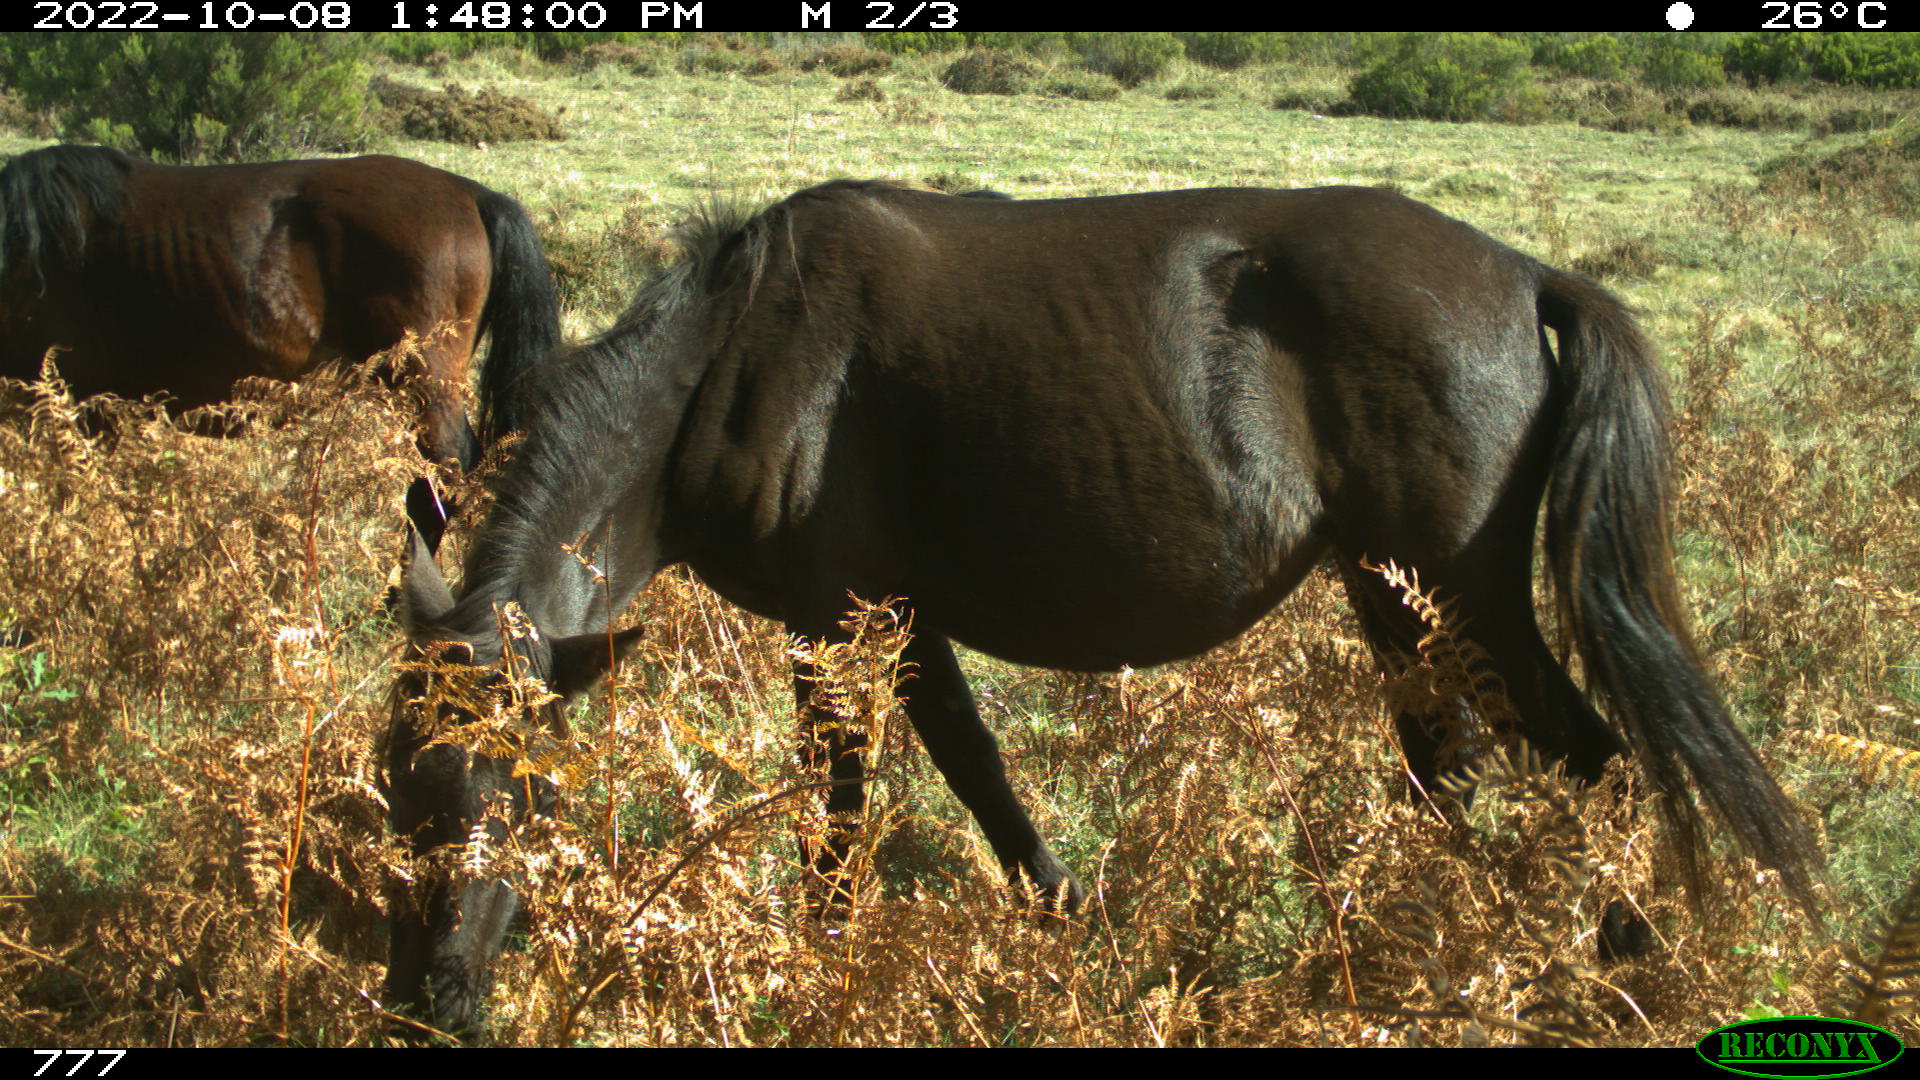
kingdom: Animalia
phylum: Chordata
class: Mammalia
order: Perissodactyla
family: Equidae
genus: Equus
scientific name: Equus caballus
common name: Horse
